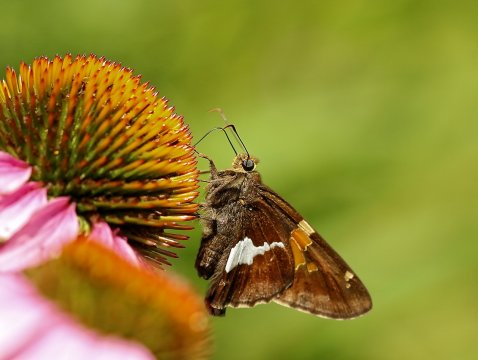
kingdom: Animalia
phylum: Arthropoda
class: Insecta
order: Lepidoptera
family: Hesperiidae
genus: Epargyreus
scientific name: Epargyreus clarus
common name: Silver-spotted Skipper
